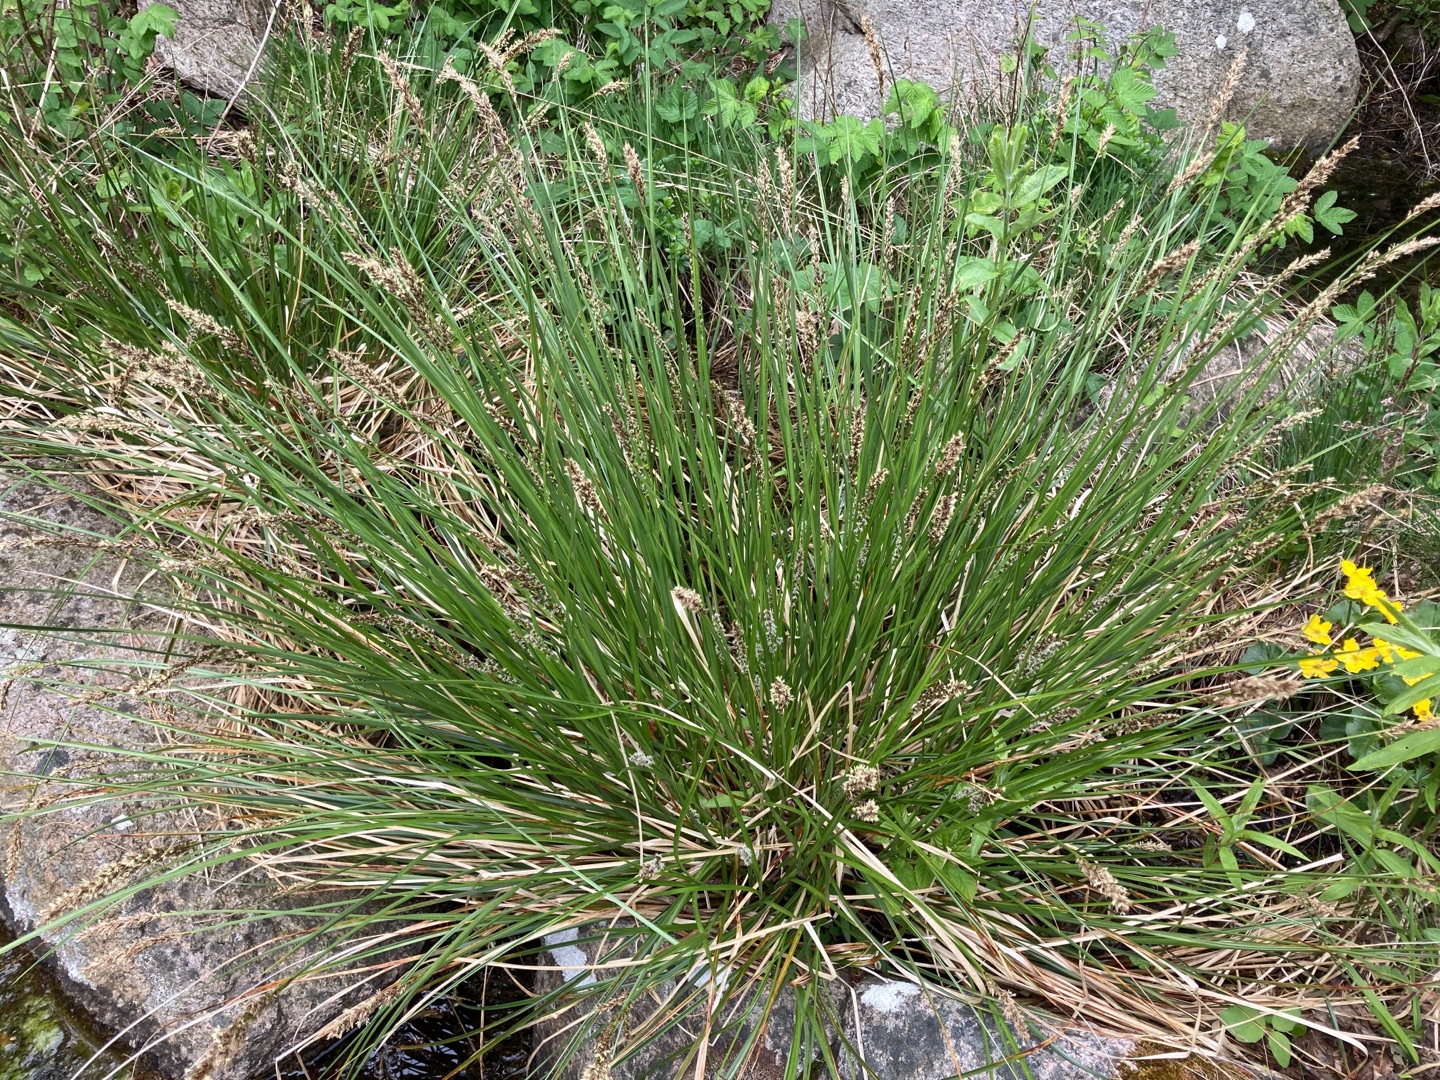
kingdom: Plantae
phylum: Tracheophyta
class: Liliopsida
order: Poales
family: Cyperaceae
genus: Carex
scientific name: Carex paniculata
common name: Top-star
